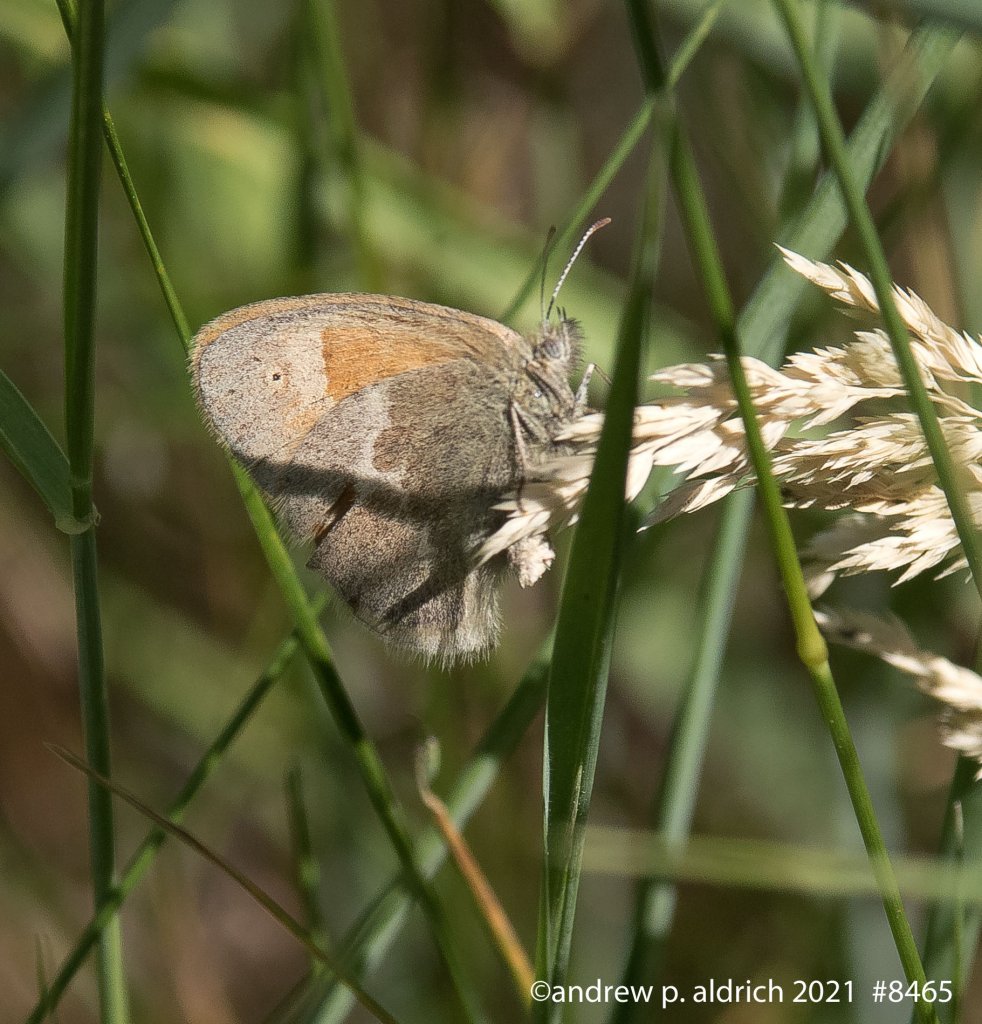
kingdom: Animalia
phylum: Arthropoda
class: Insecta
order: Lepidoptera
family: Nymphalidae
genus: Coenonympha
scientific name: Coenonympha tullia
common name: Large Heath
